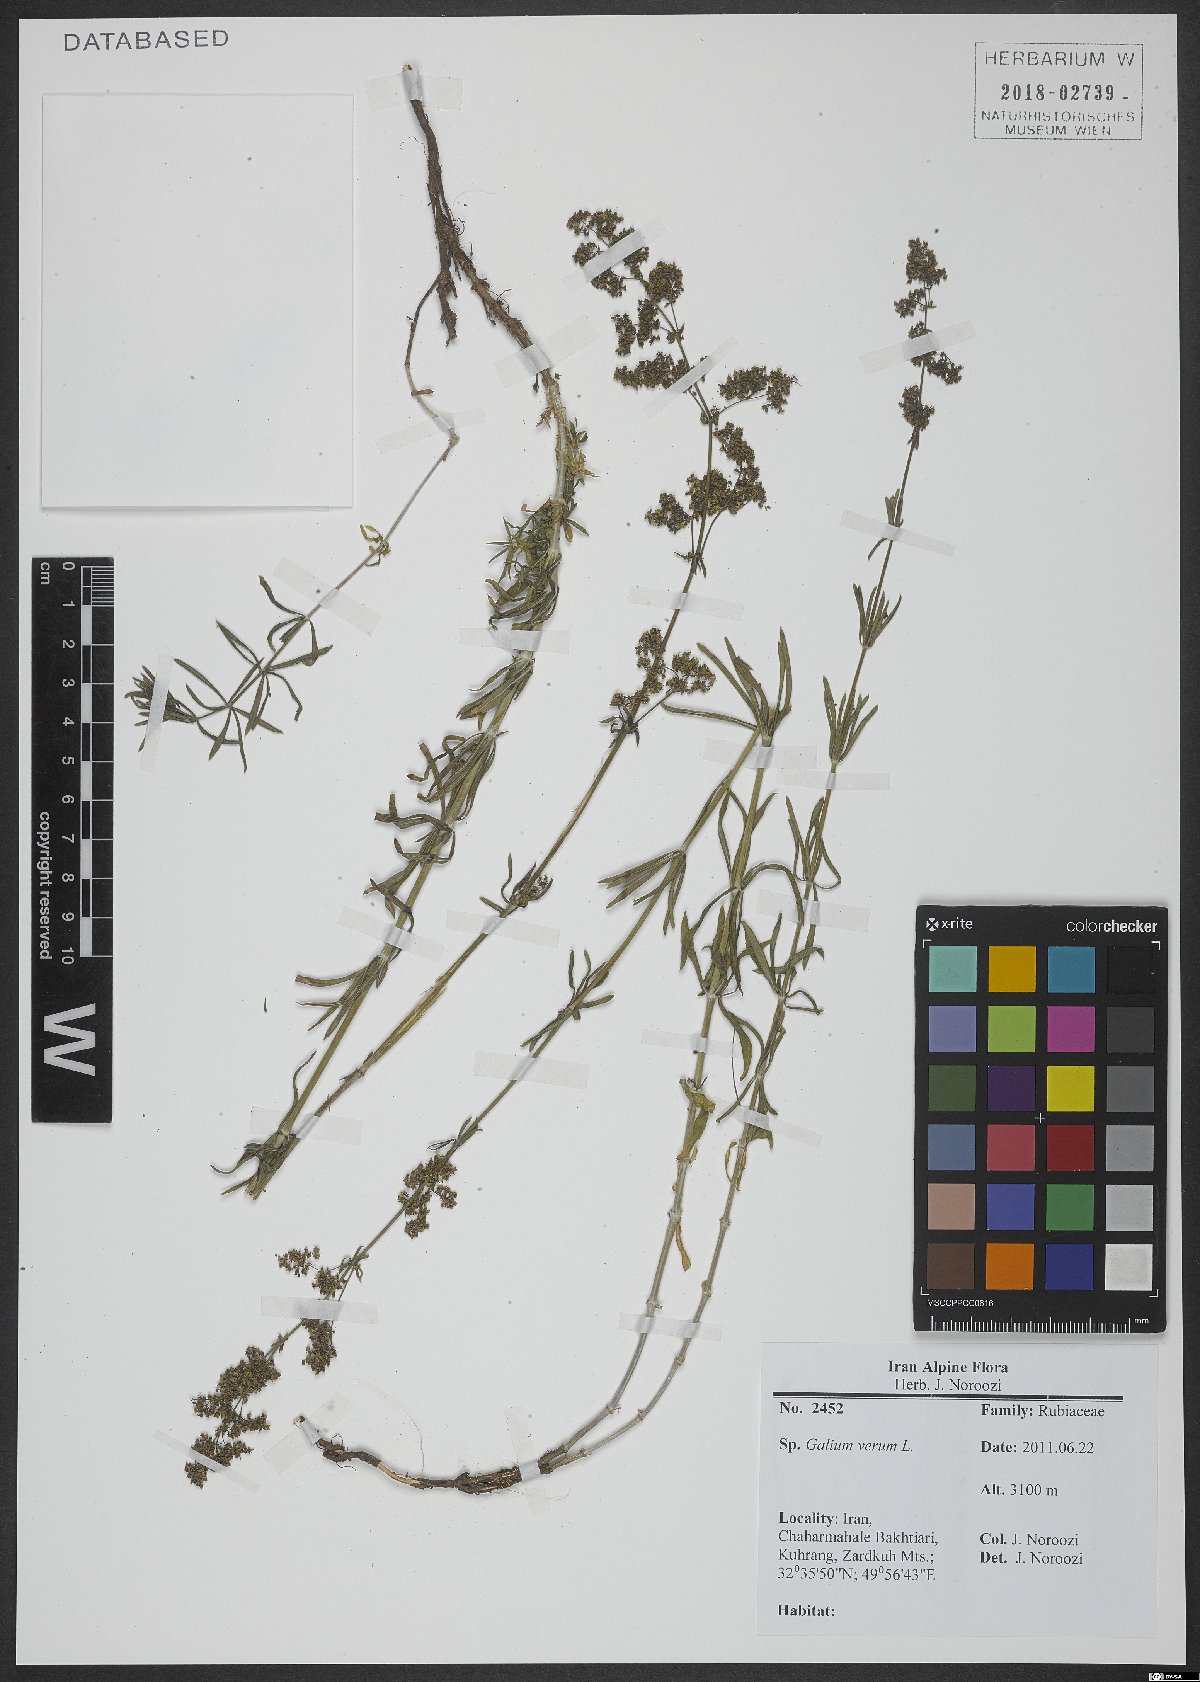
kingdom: Plantae
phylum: Tracheophyta
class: Magnoliopsida
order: Gentianales
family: Rubiaceae
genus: Galium
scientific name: Galium verum
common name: Lady's bedstraw
